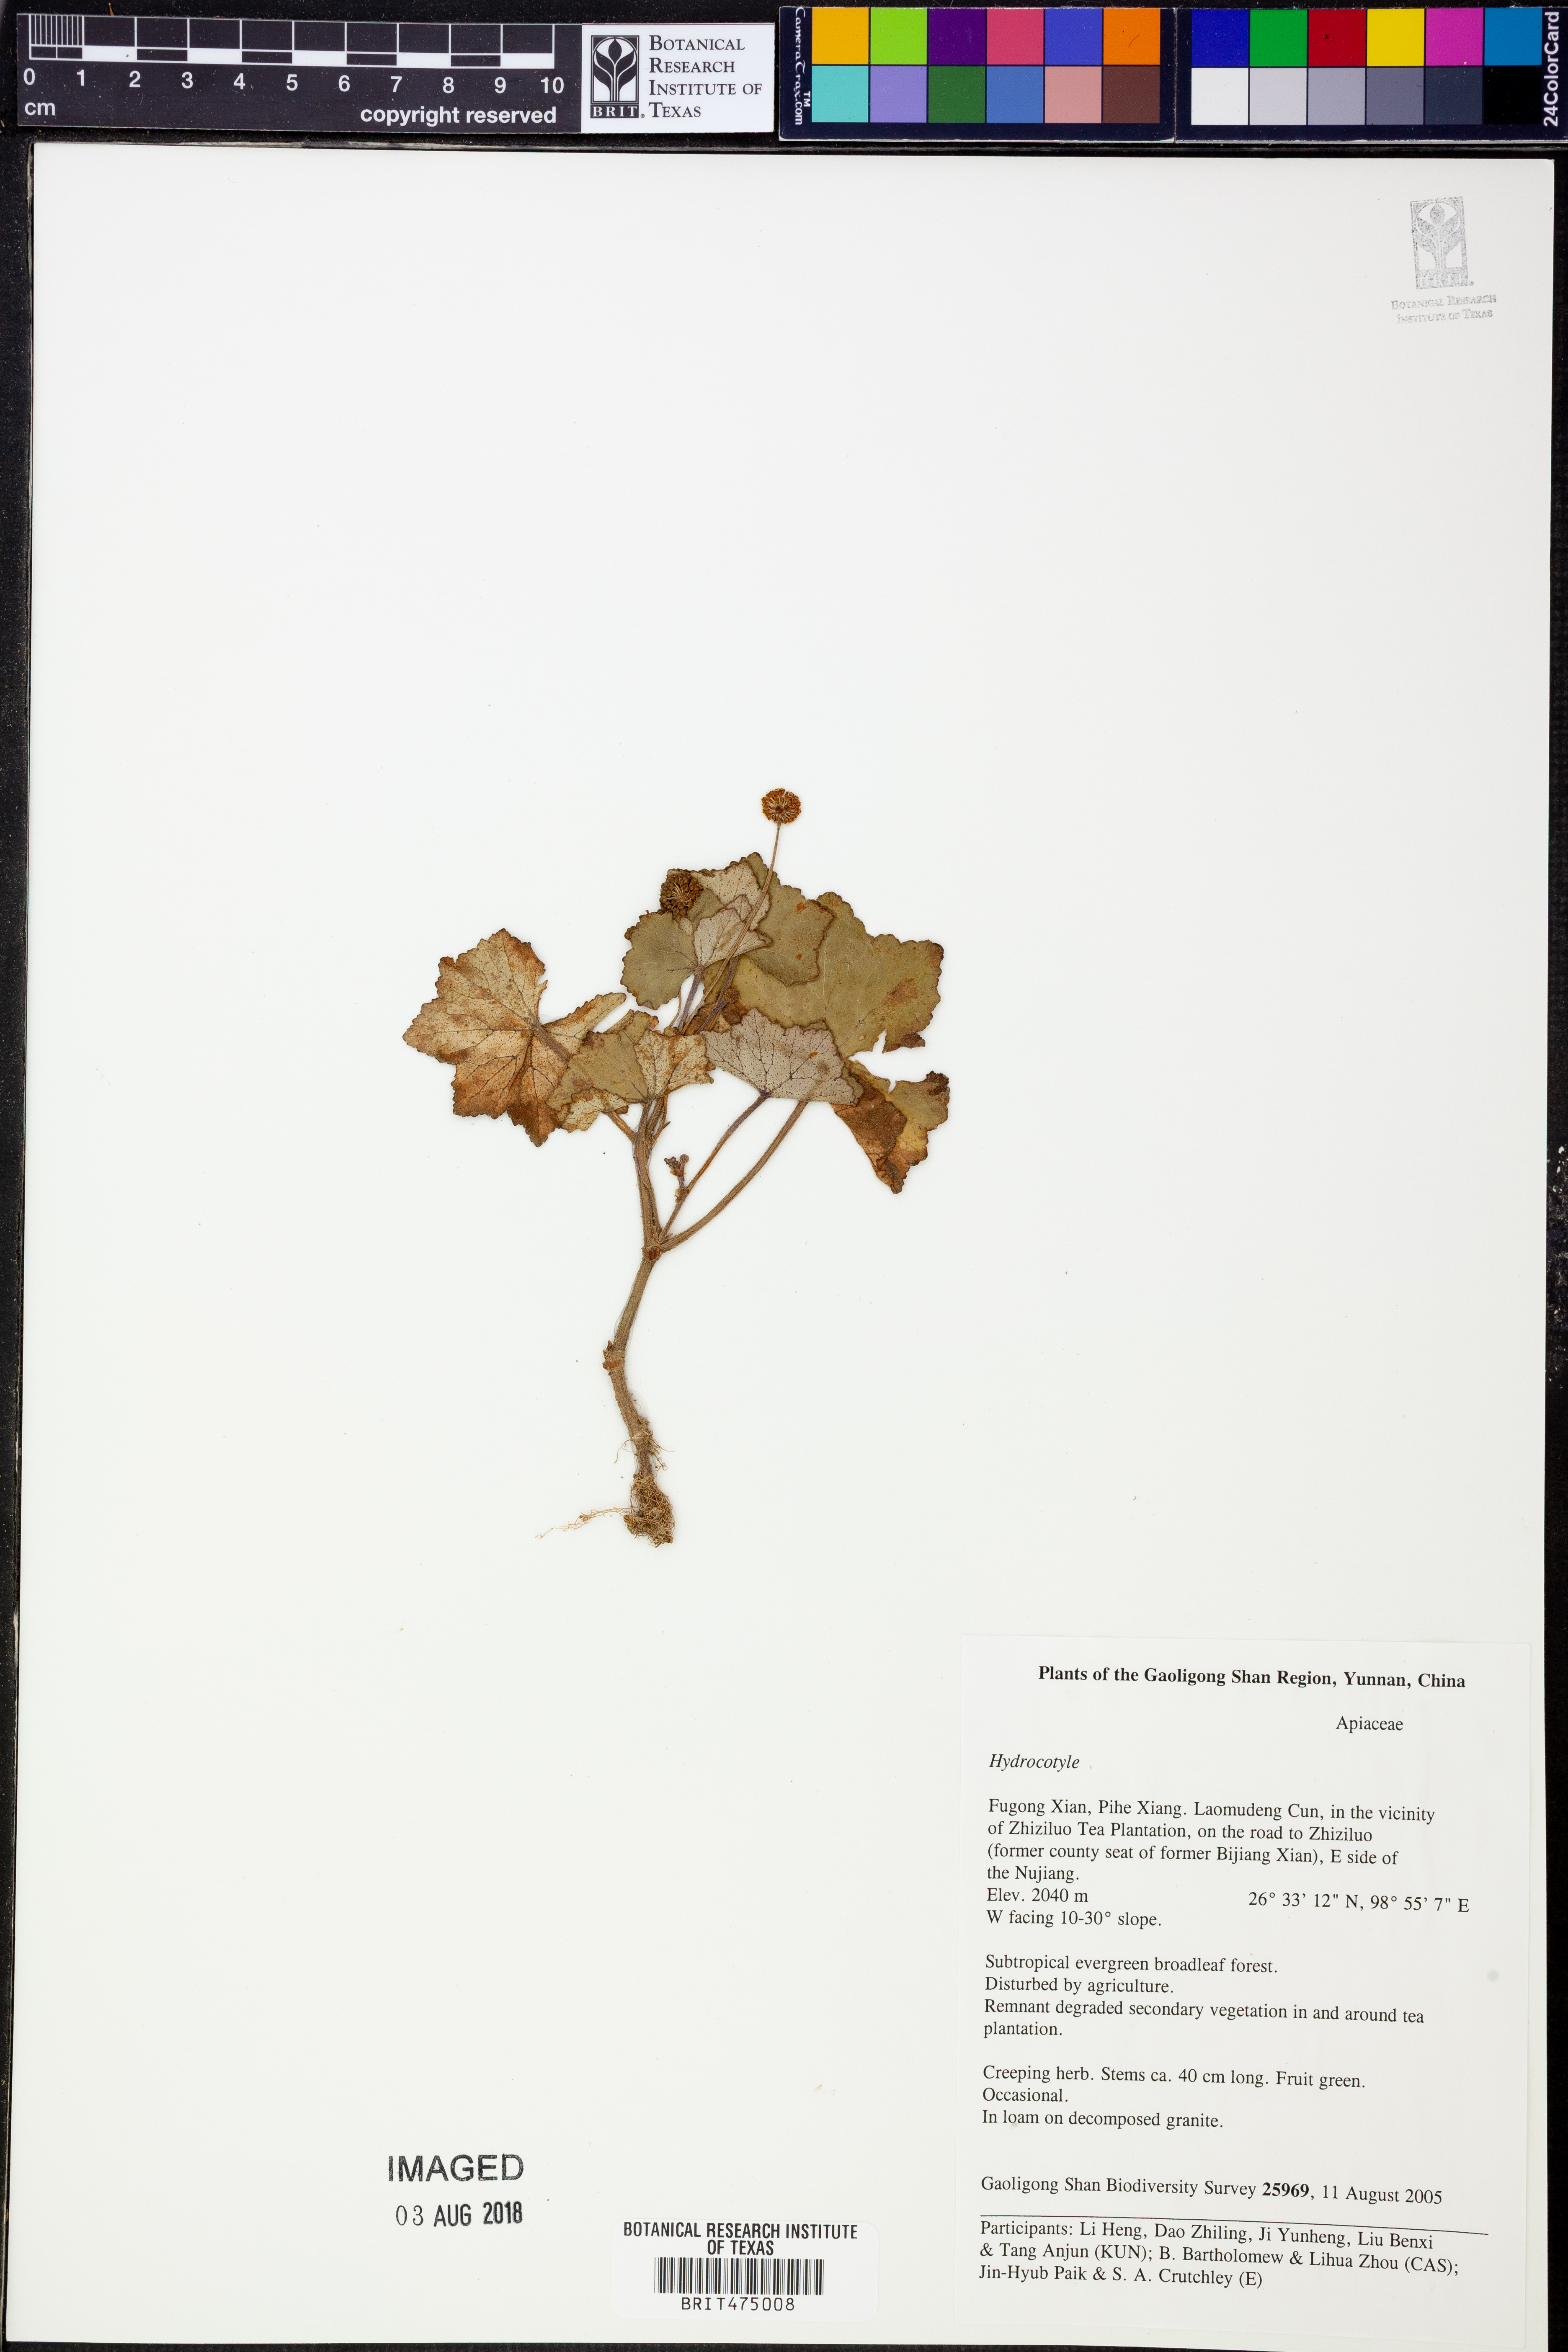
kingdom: Plantae
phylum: Tracheophyta
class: Magnoliopsida
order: Apiales
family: Araliaceae
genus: Hydrocotyle
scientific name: Hydrocotyle
